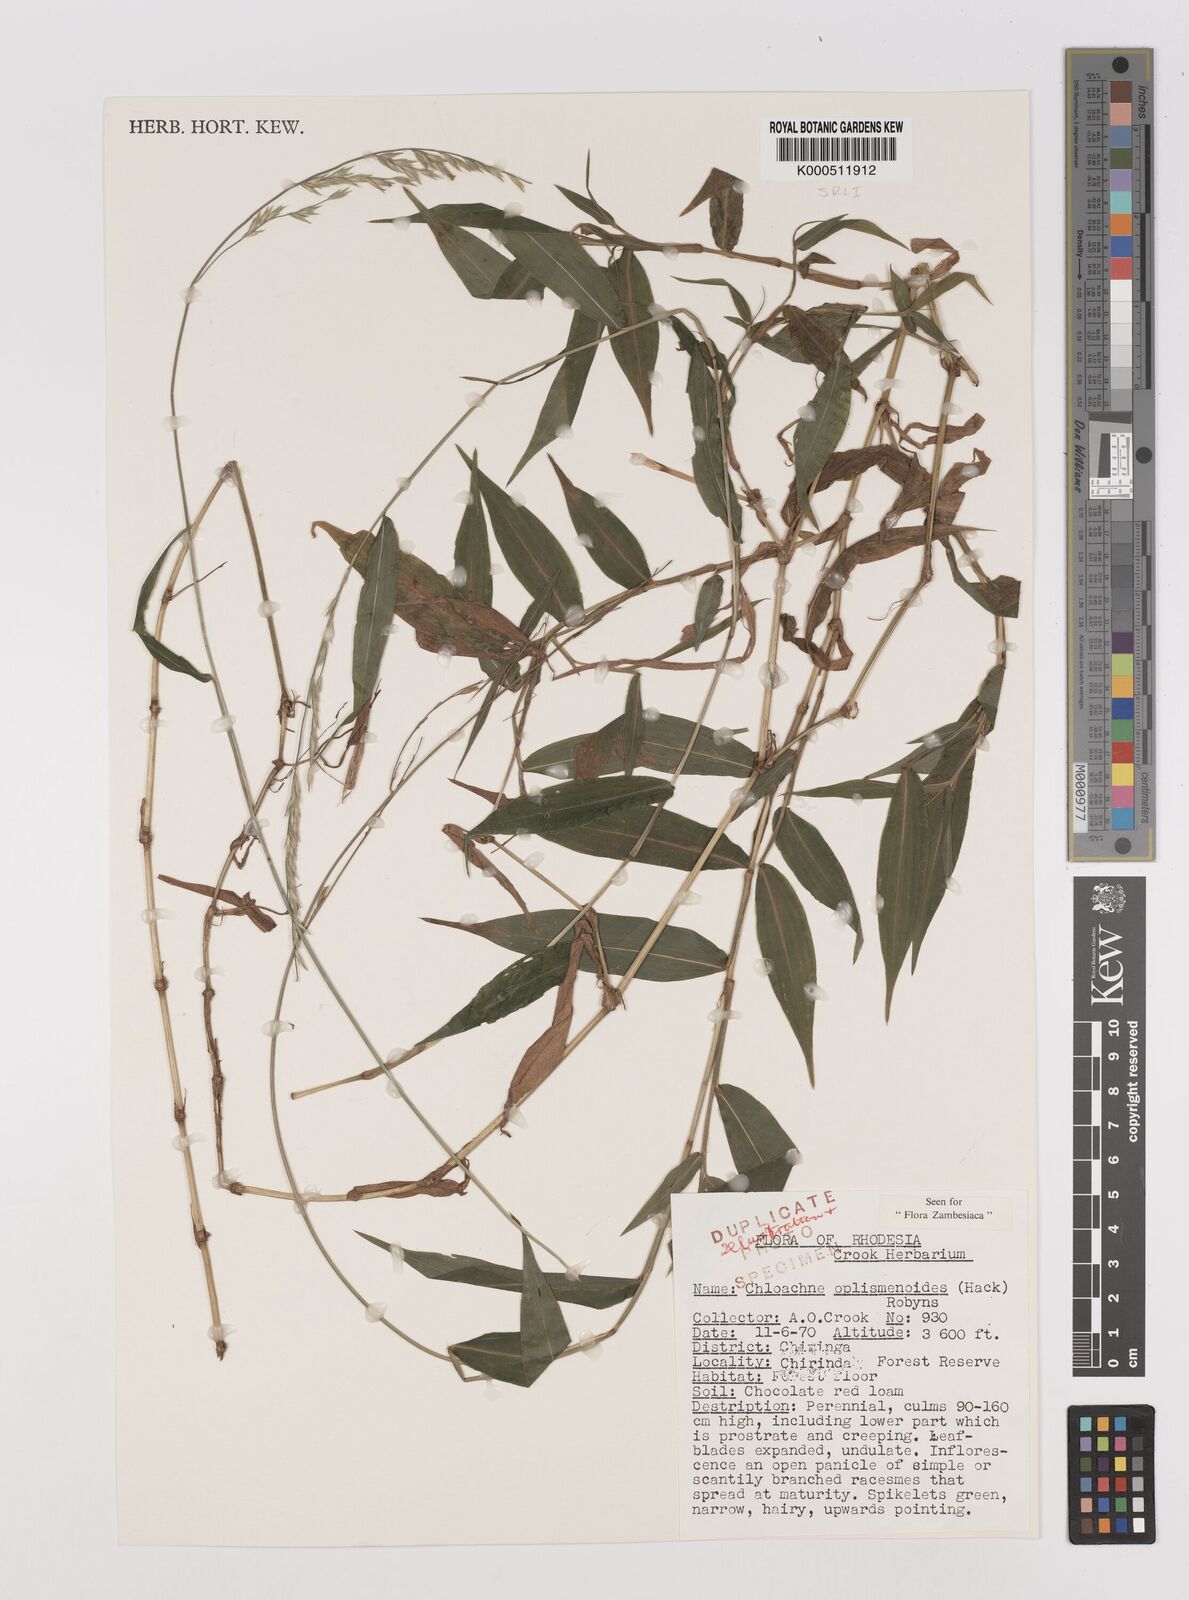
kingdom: Plantae
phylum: Tracheophyta
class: Liliopsida
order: Poales
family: Poaceae
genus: Poecilostachys
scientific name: Poecilostachys oplismenoides
